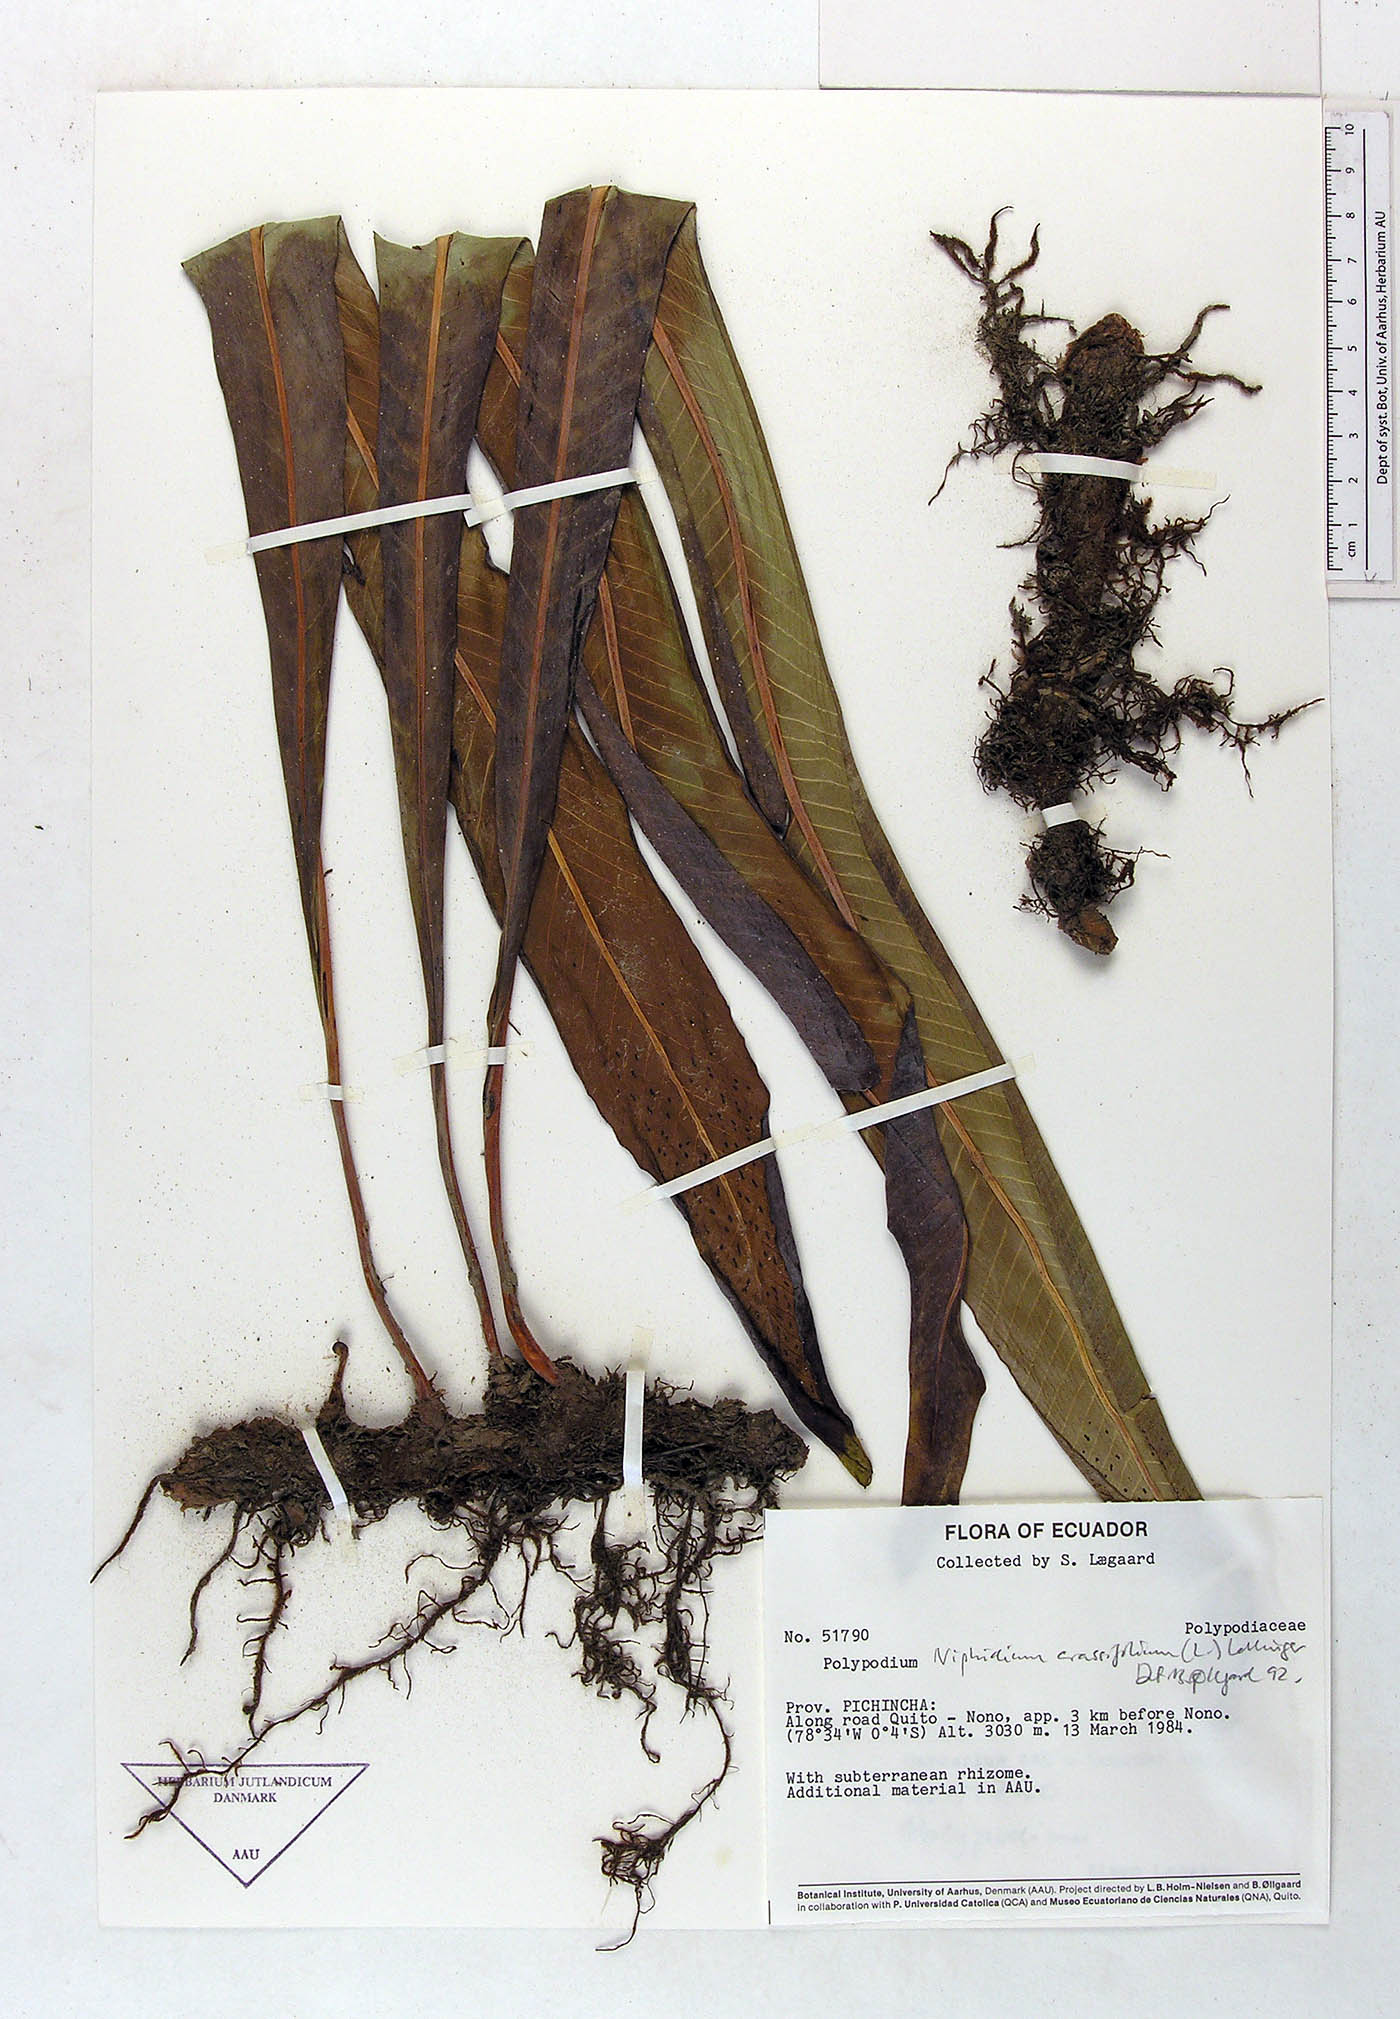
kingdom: Plantae
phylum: Tracheophyta
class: Polypodiopsida
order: Polypodiales
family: Polypodiaceae
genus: Niphidium
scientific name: Niphidium crassifolium
